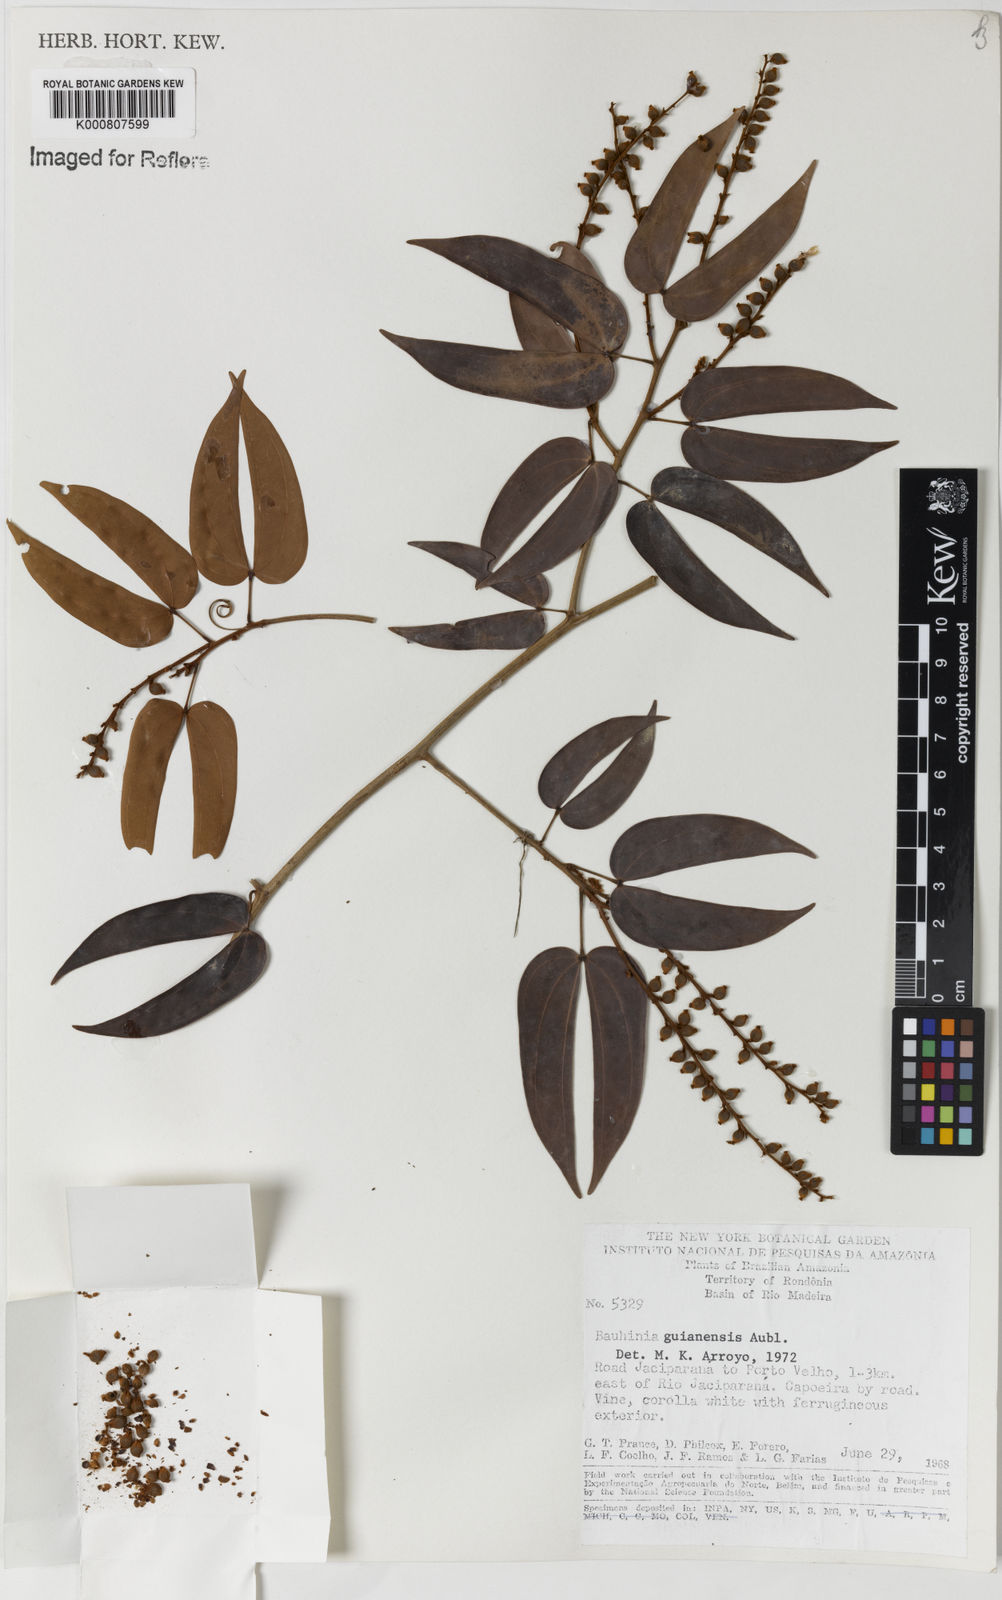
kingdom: Plantae
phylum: Tracheophyta
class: Magnoliopsida
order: Fabales
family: Fabaceae
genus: Schnella
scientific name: Schnella guianensis
